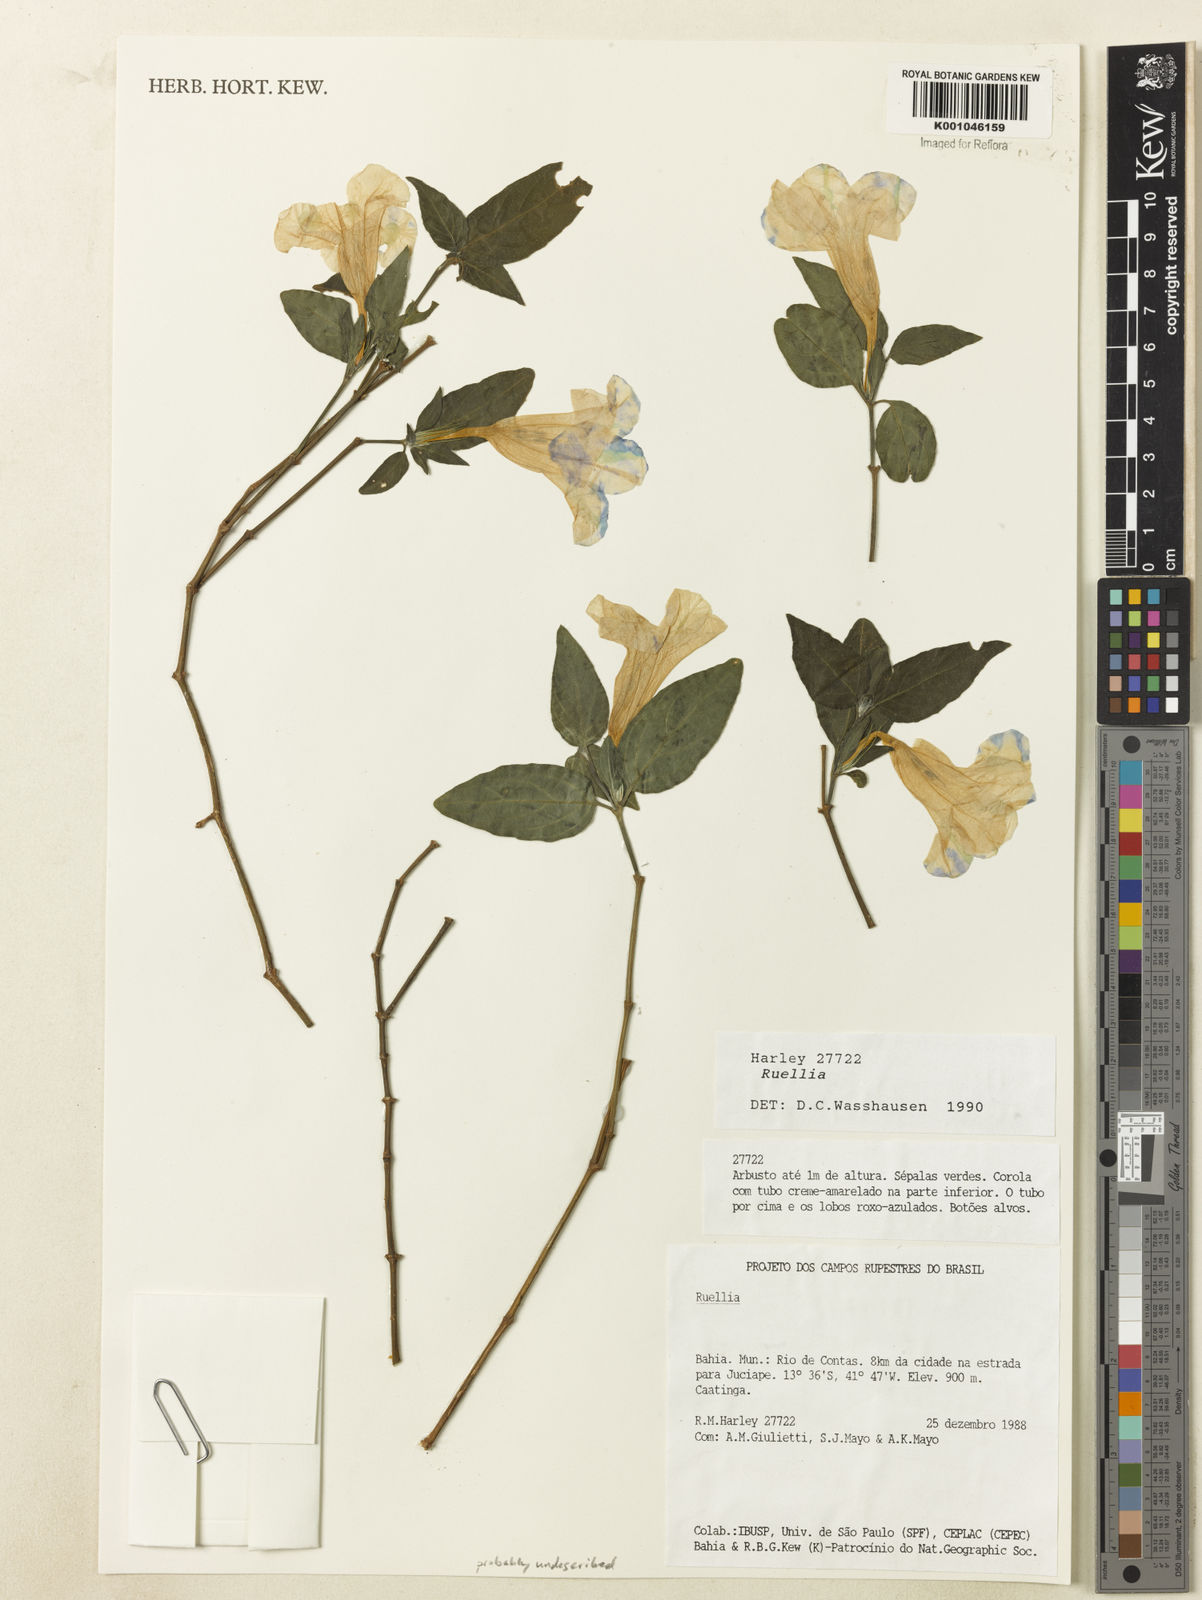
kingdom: Plantae
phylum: Tracheophyta
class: Magnoliopsida
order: Lamiales
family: Acanthaceae
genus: Ruellia
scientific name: Ruellia
